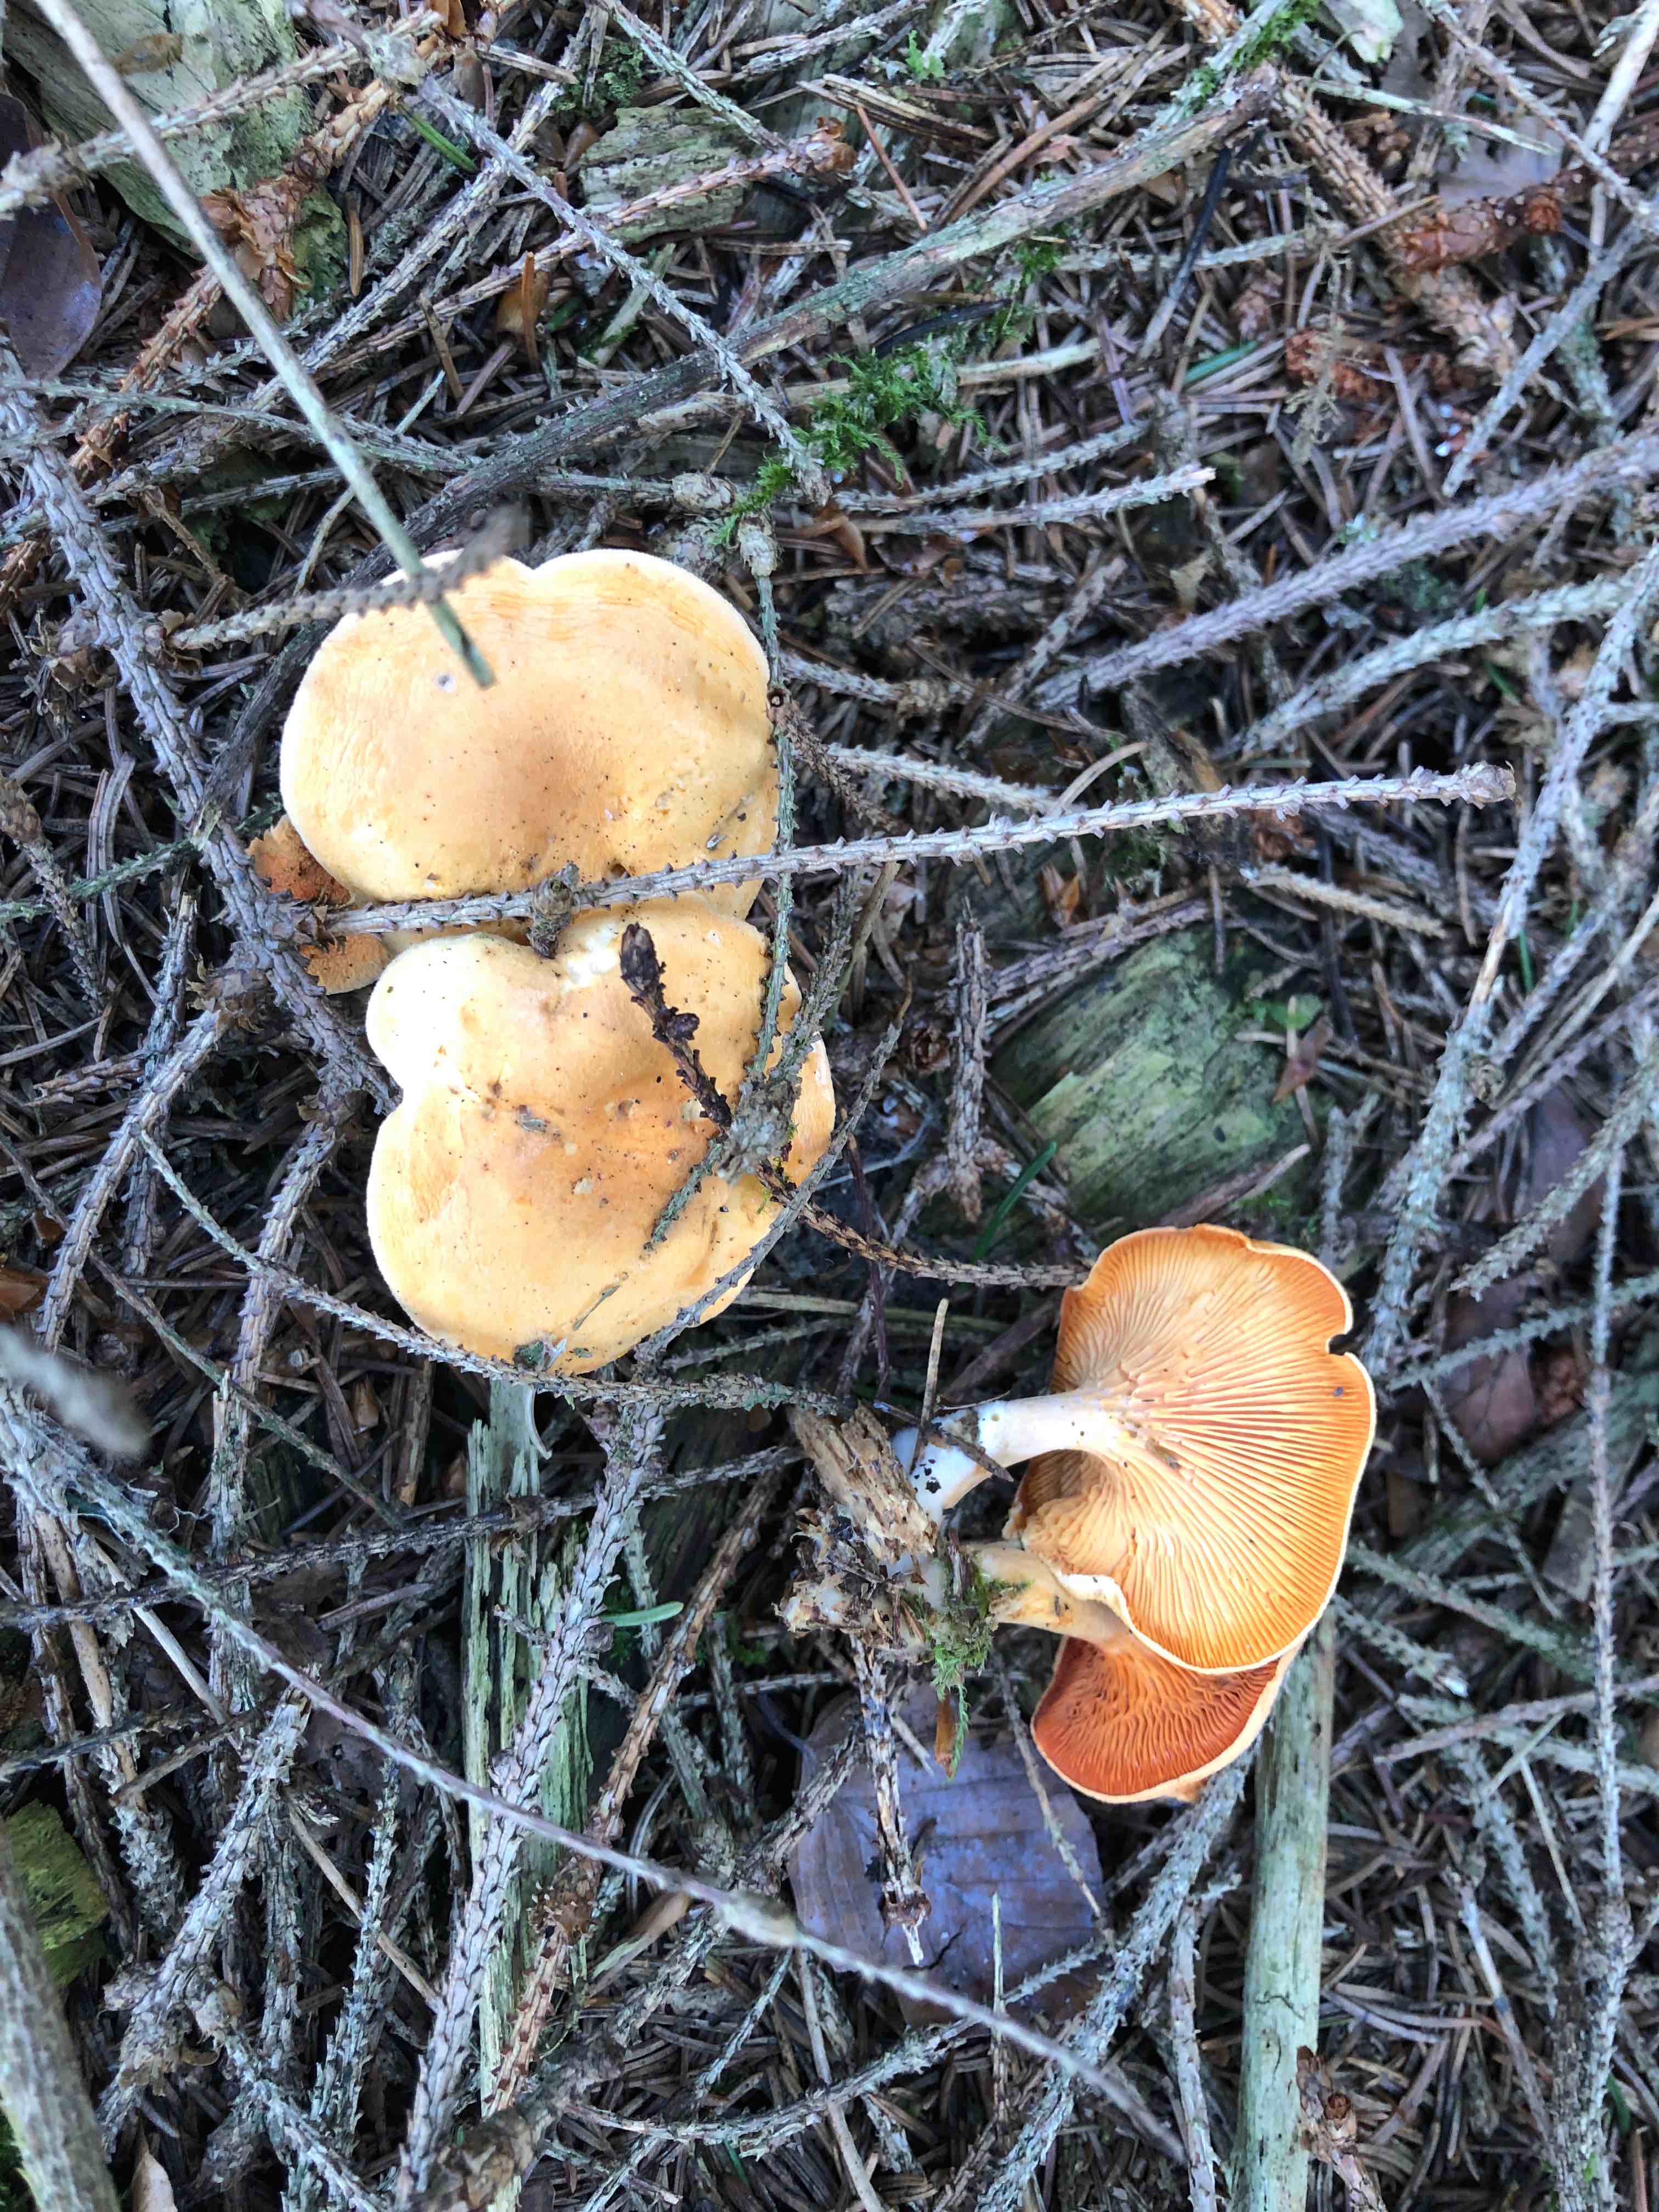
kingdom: Fungi
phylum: Basidiomycota
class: Agaricomycetes
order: Boletales
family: Hygrophoropsidaceae
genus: Hygrophoropsis
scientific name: Hygrophoropsis aurantiaca
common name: almindelig orangekantarel
